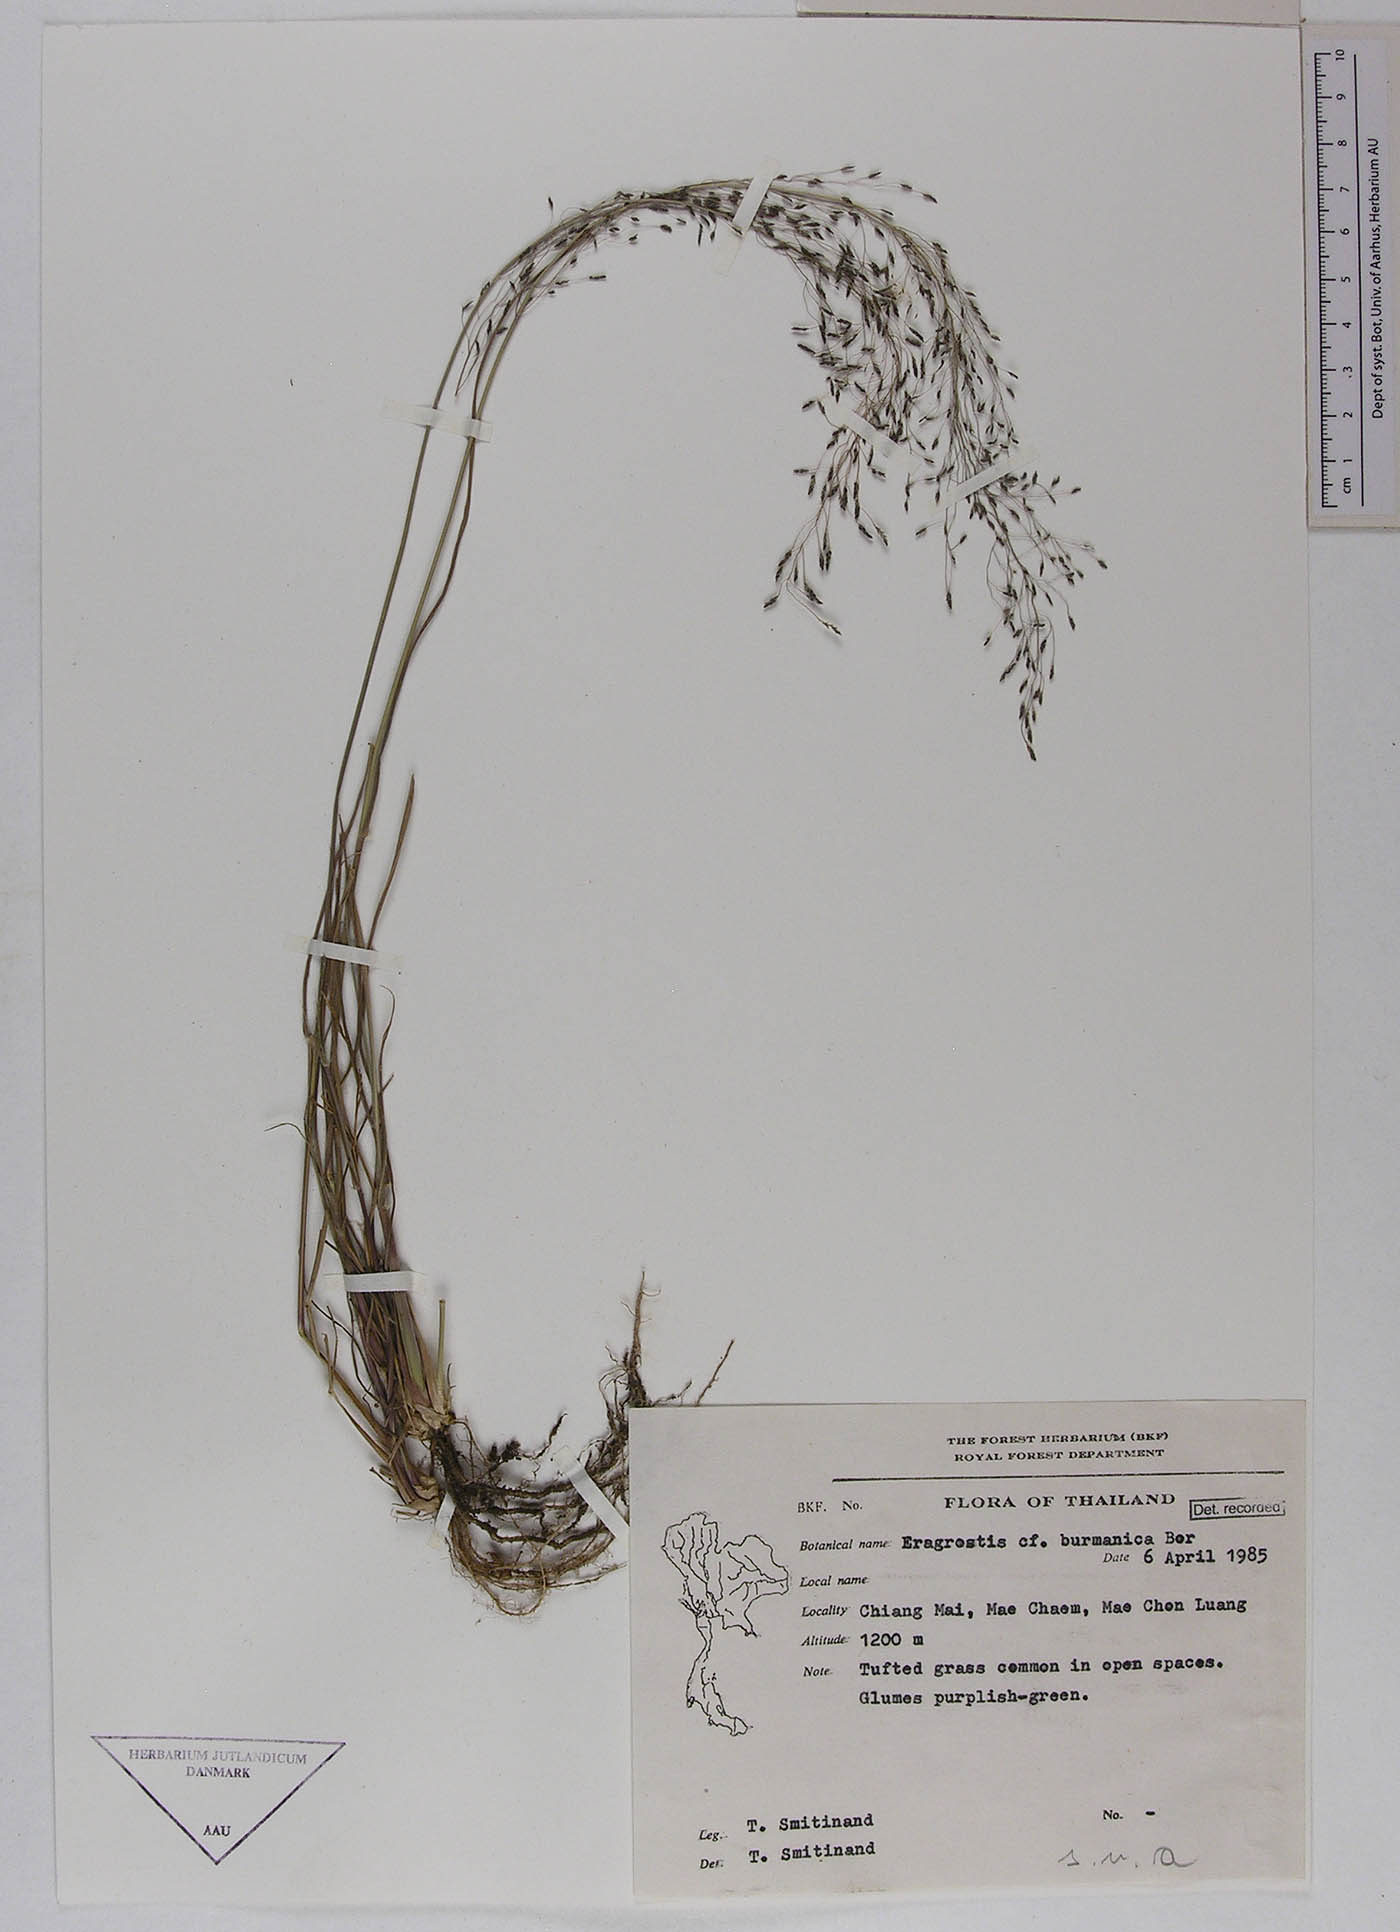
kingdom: Plantae
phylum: Tracheophyta
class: Liliopsida
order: Poales
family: Poaceae
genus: Eragrostis
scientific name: Eragrostis burmanica
